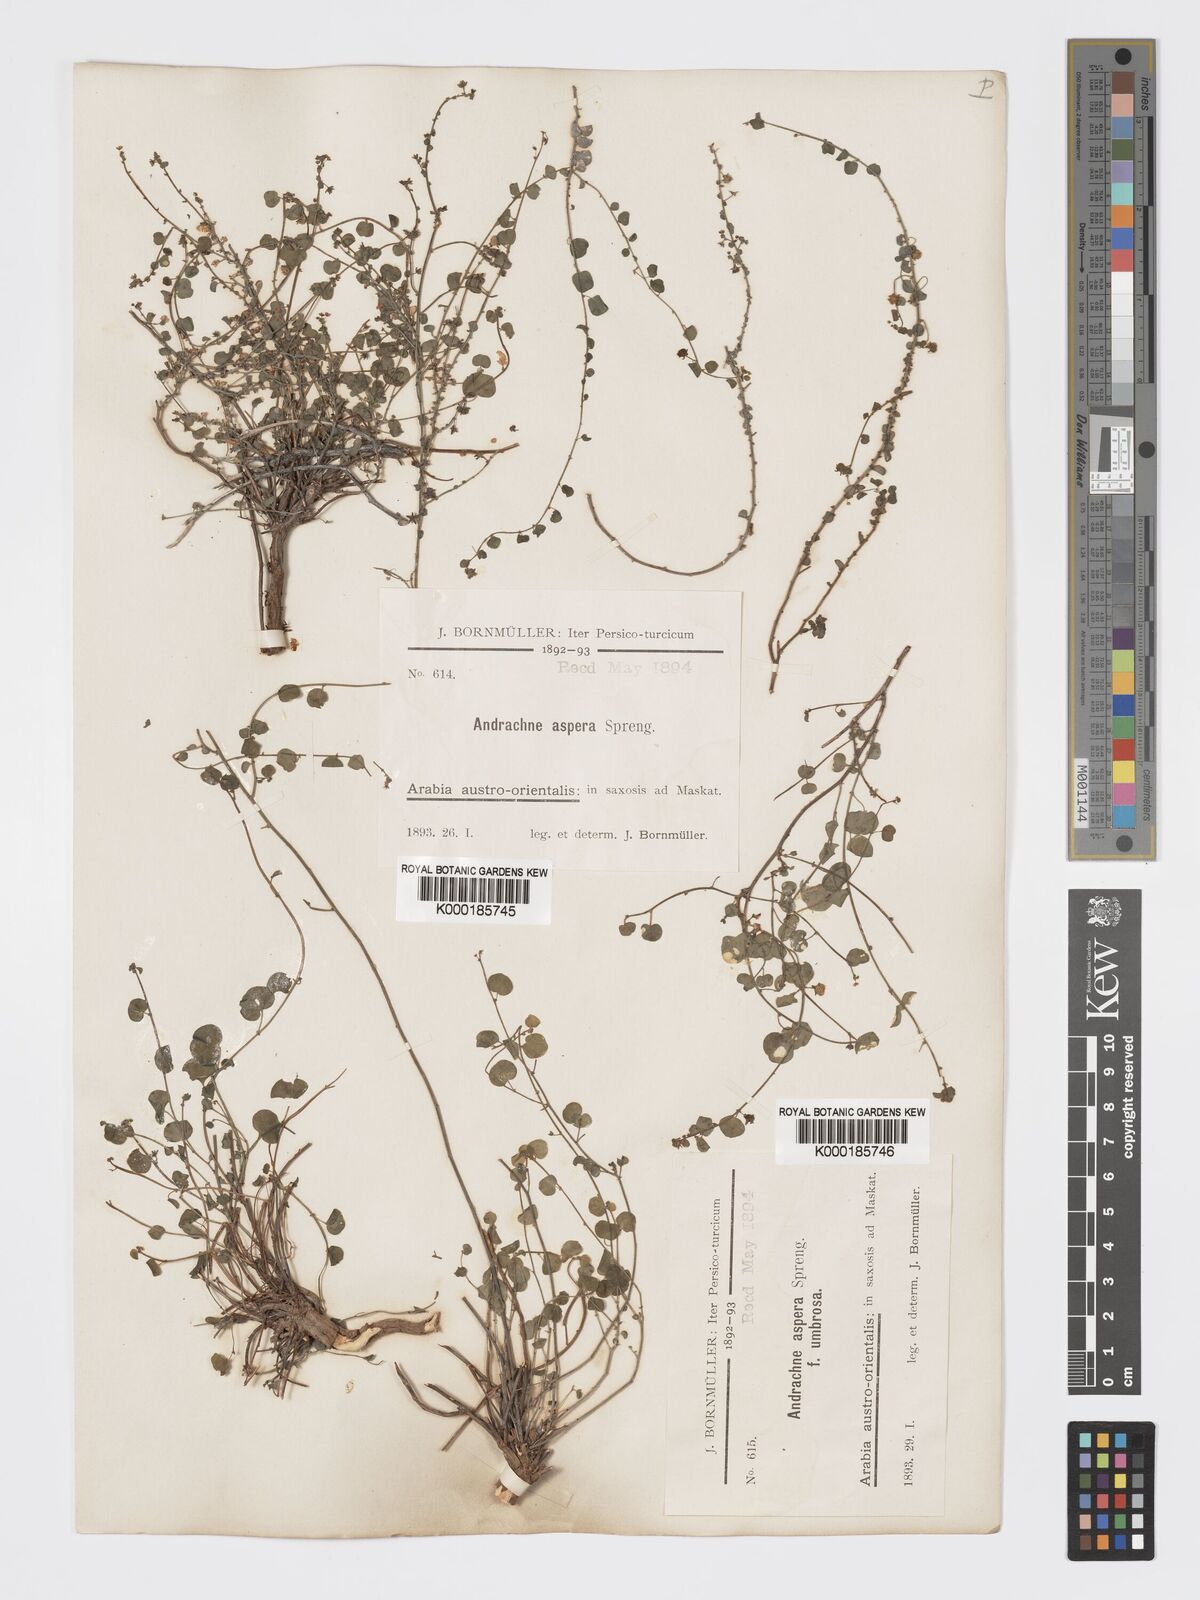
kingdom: Plantae
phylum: Tracheophyta
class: Magnoliopsida
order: Malpighiales
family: Phyllanthaceae
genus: Andrachne
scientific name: Andrachne aspera
